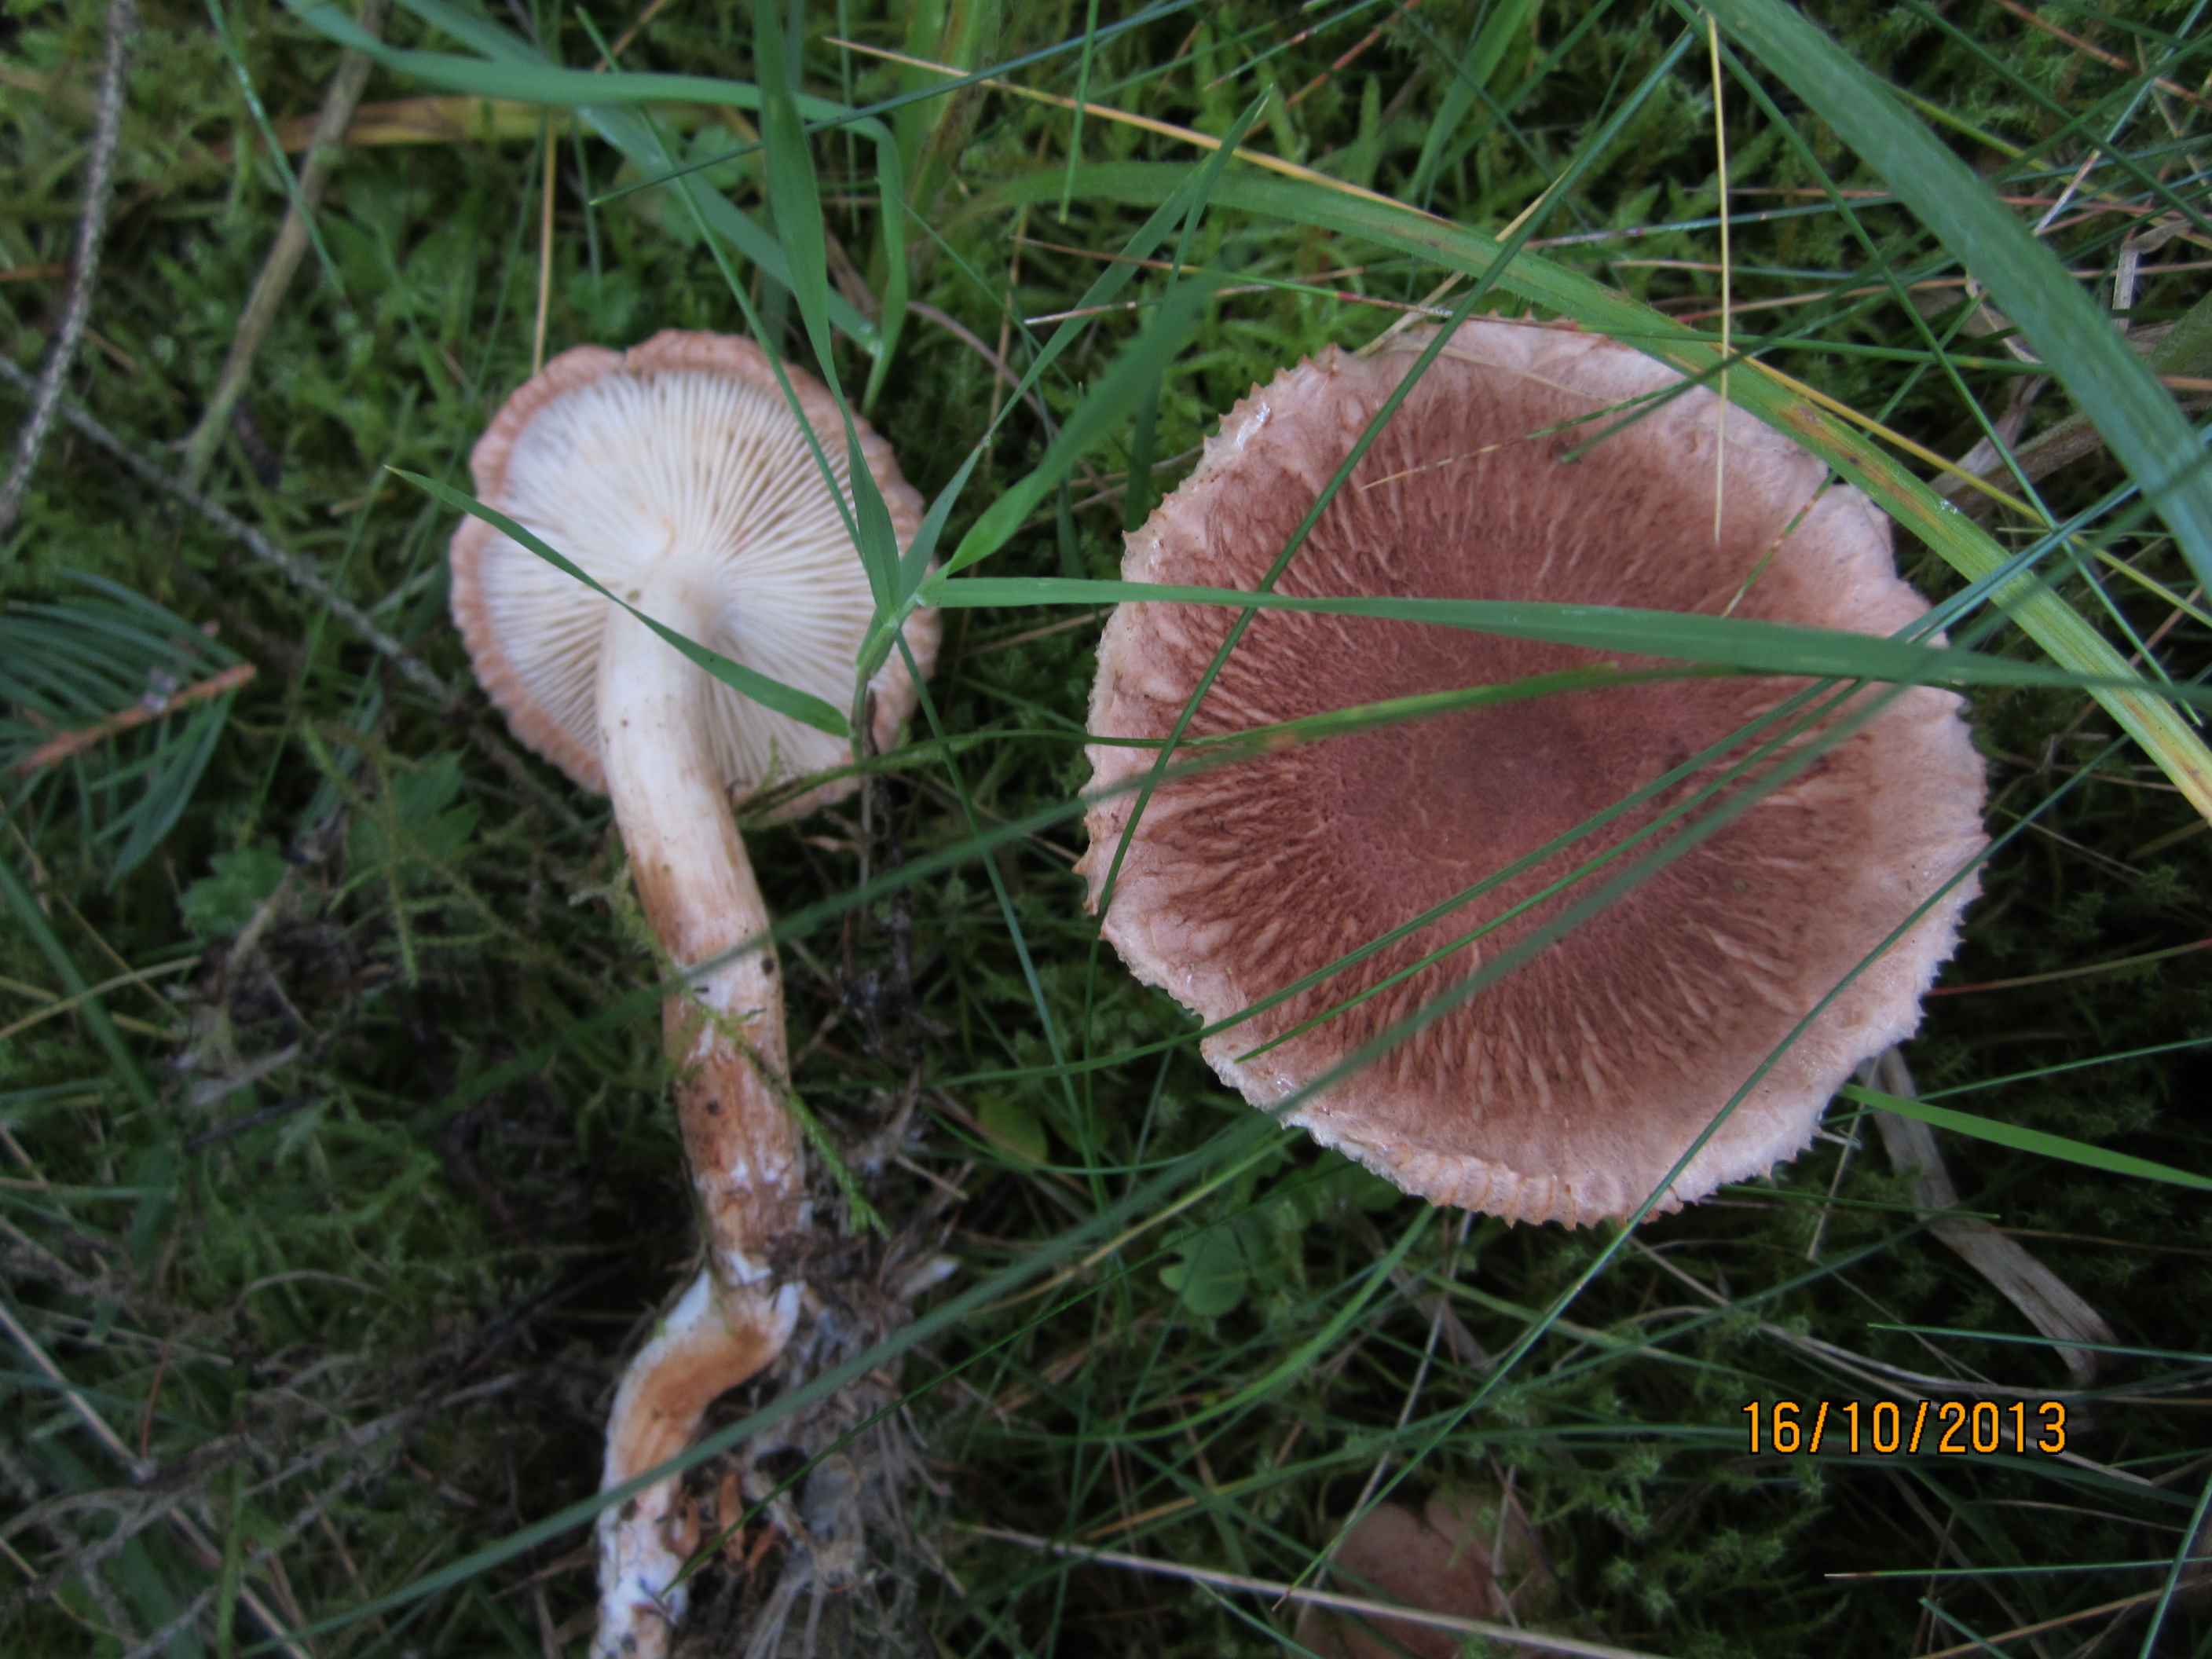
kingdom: Fungi
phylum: Basidiomycota
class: Agaricomycetes
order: Agaricales
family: Tricholomataceae
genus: Tricholoma
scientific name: Tricholoma vaccinum
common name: ko-ridderhat
